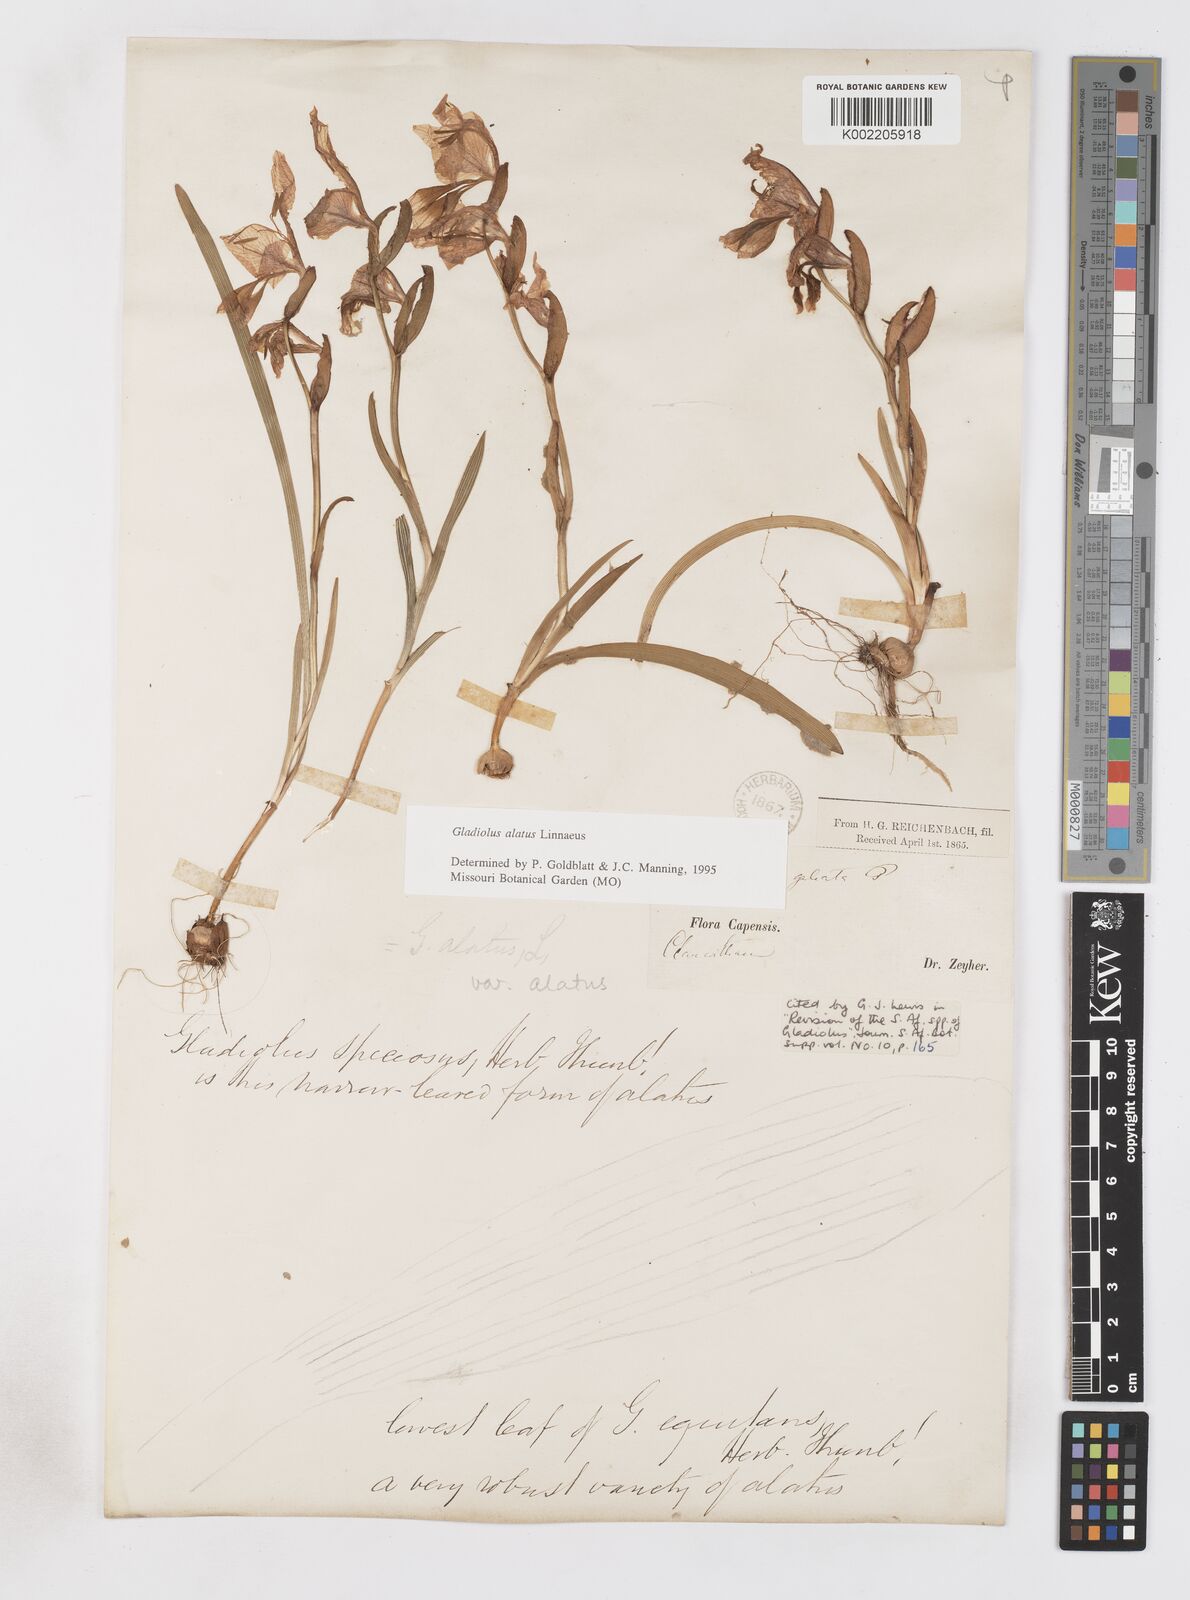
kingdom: Plantae
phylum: Tracheophyta
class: Liliopsida
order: Asparagales
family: Iridaceae
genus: Gladiolus
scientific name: Gladiolus alatus
